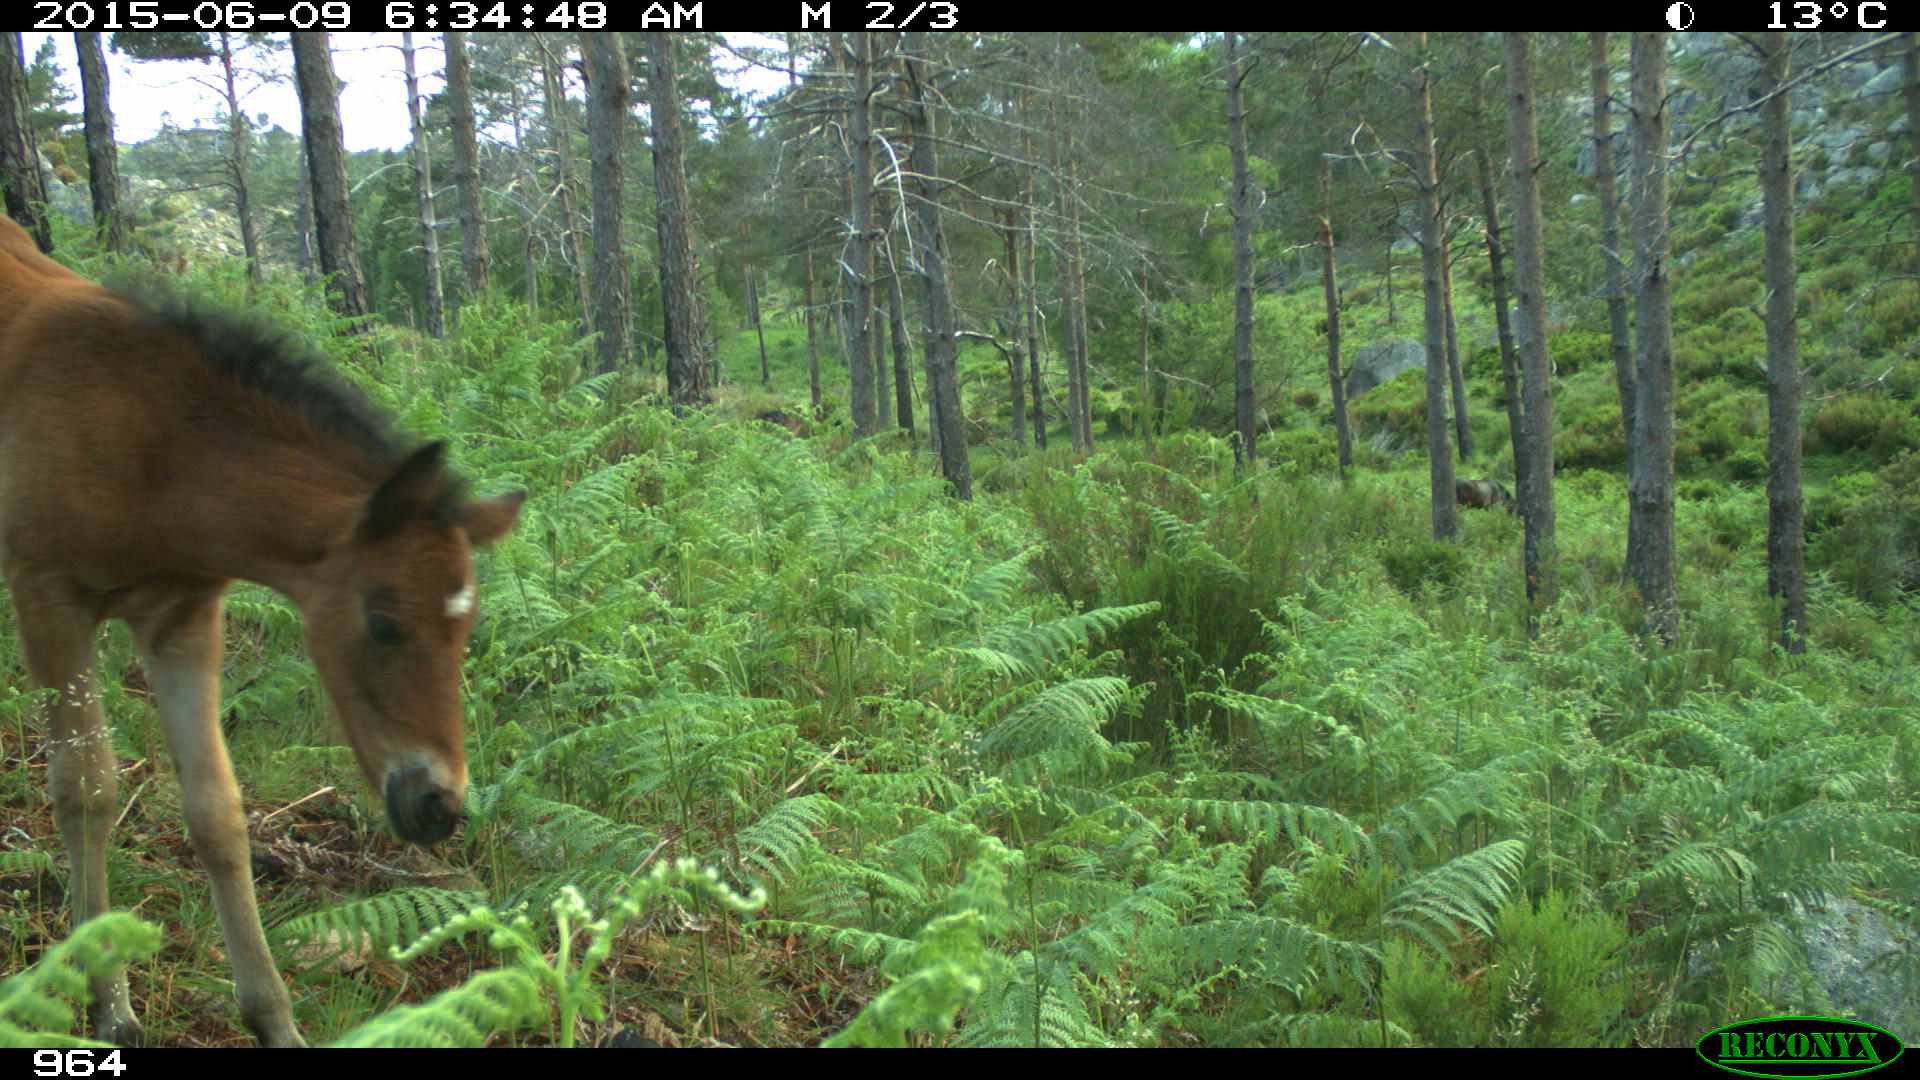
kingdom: Animalia
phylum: Chordata
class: Mammalia
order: Perissodactyla
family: Equidae
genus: Equus
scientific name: Equus caballus
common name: Horse
